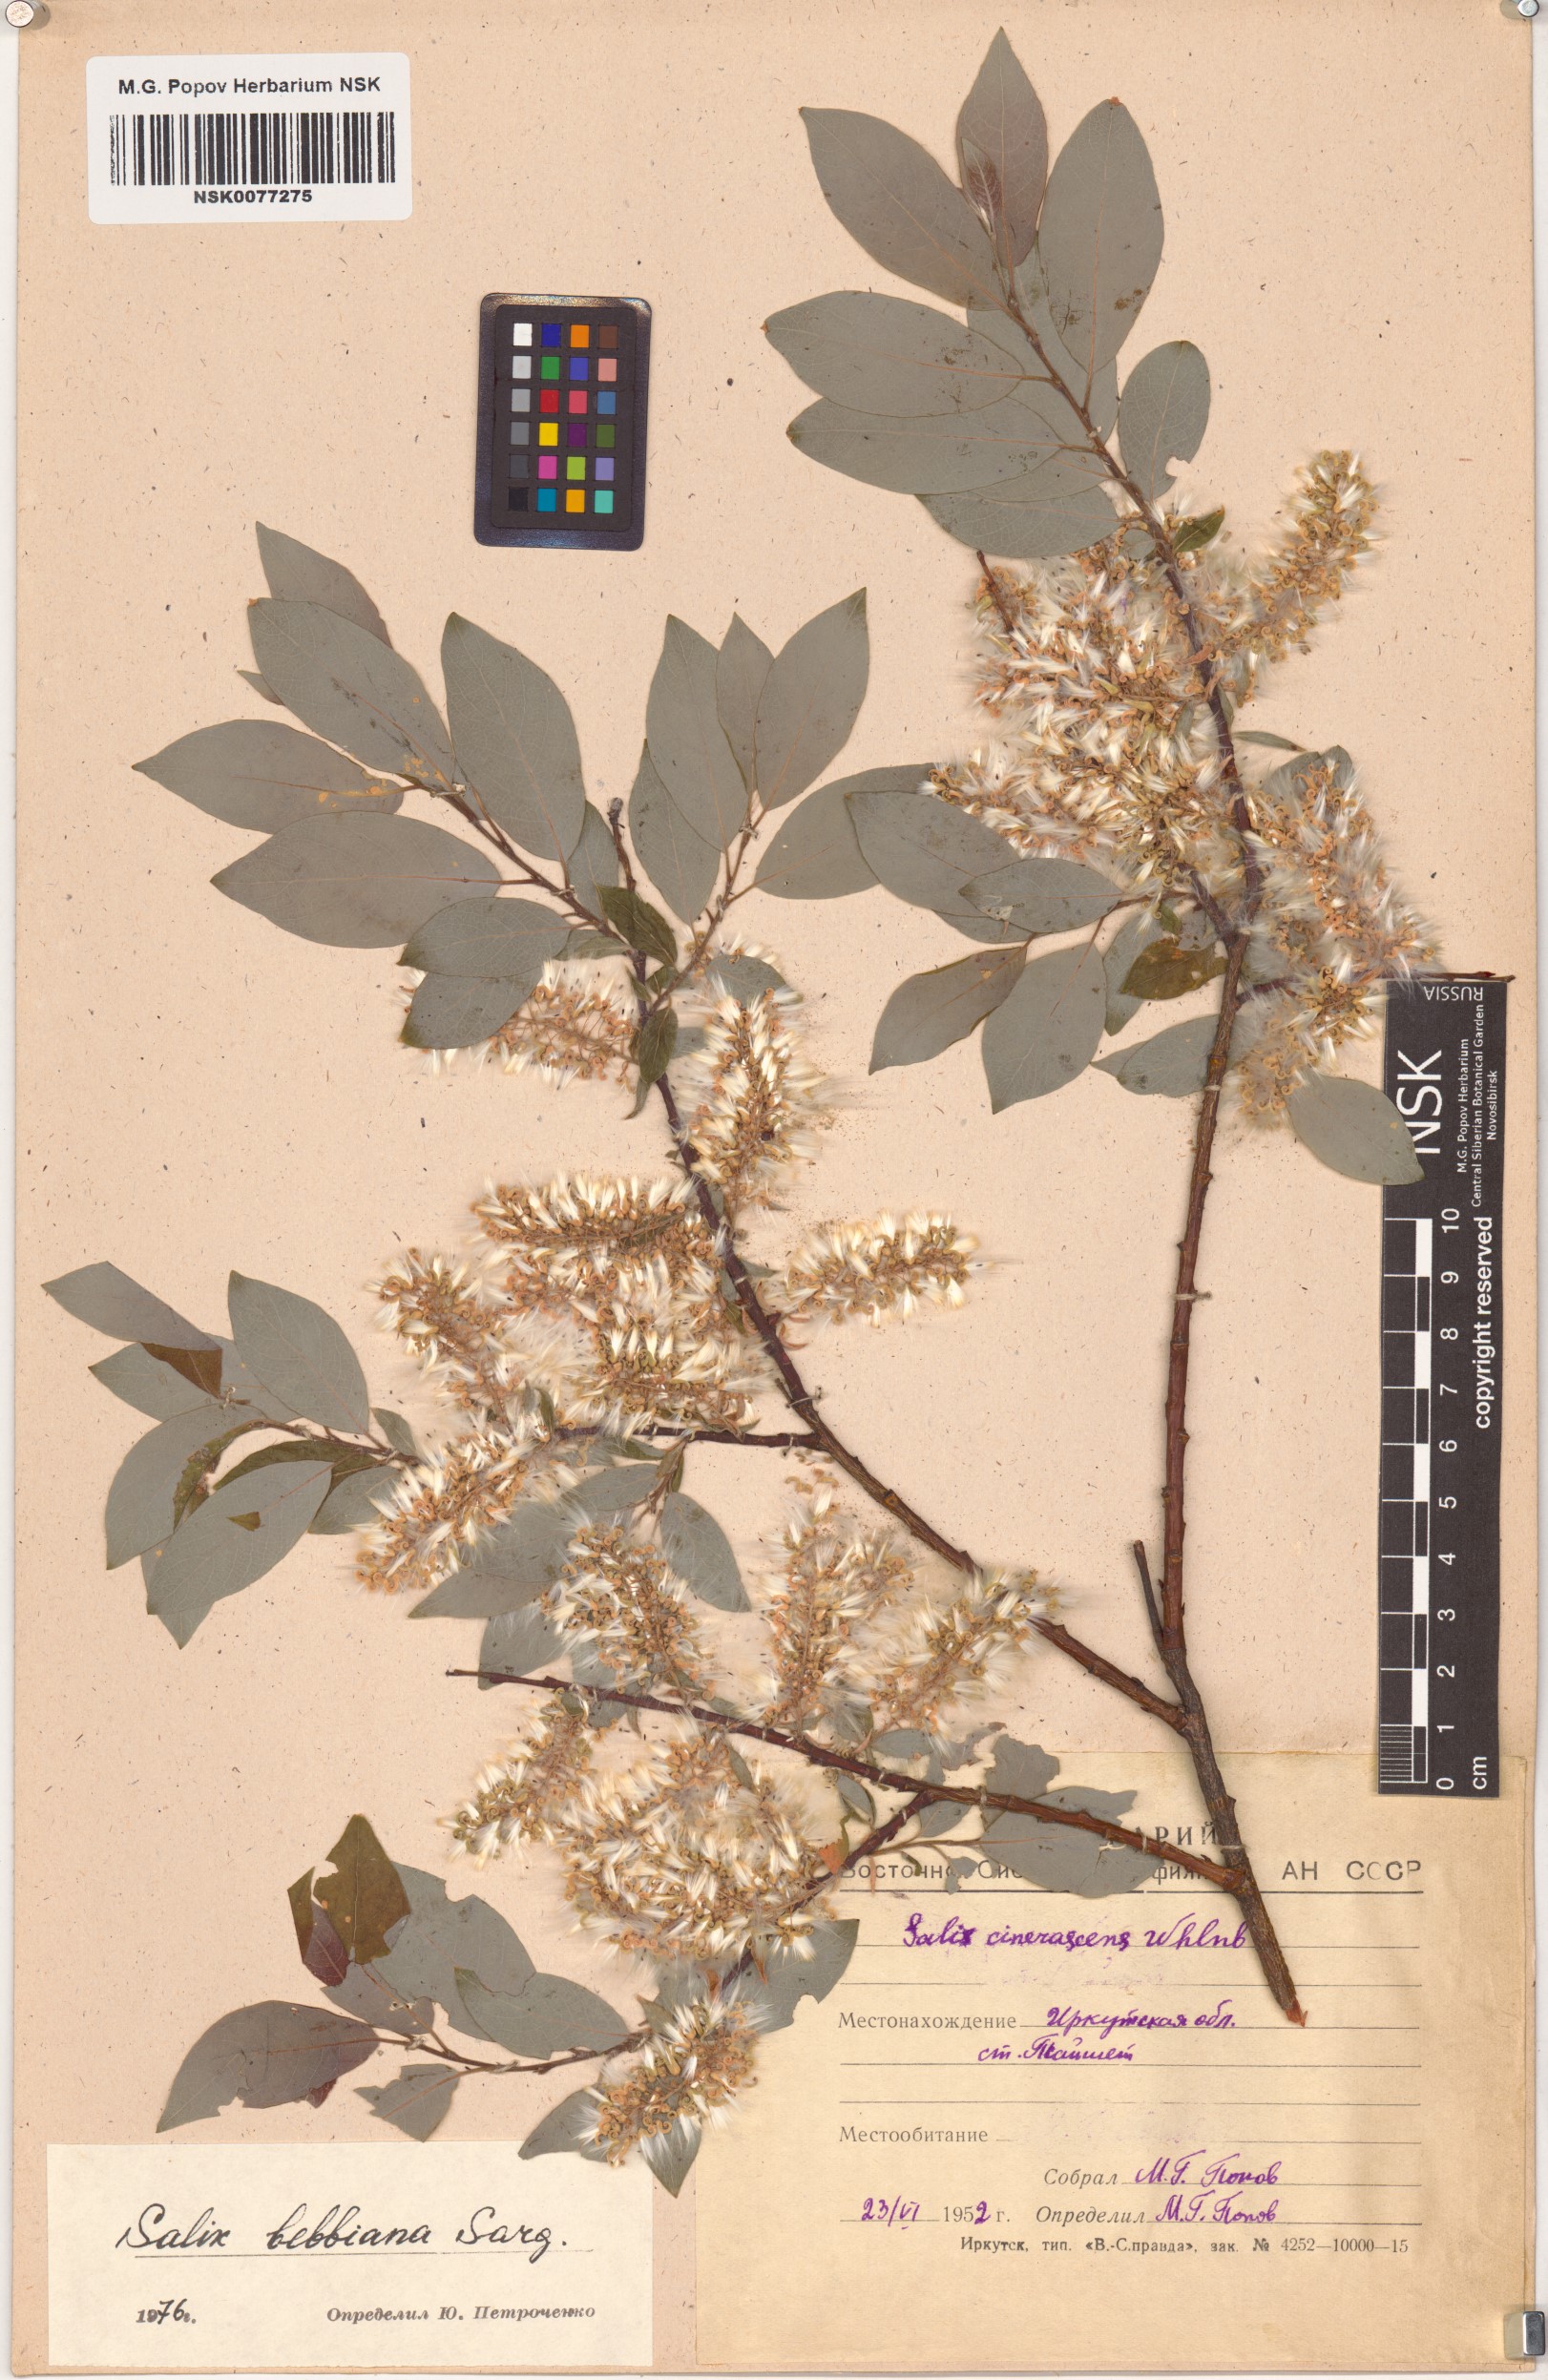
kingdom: Plantae
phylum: Tracheophyta
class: Magnoliopsida
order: Malpighiales
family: Salicaceae
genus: Salix
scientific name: Salix bebbiana
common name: Bebb's willow
